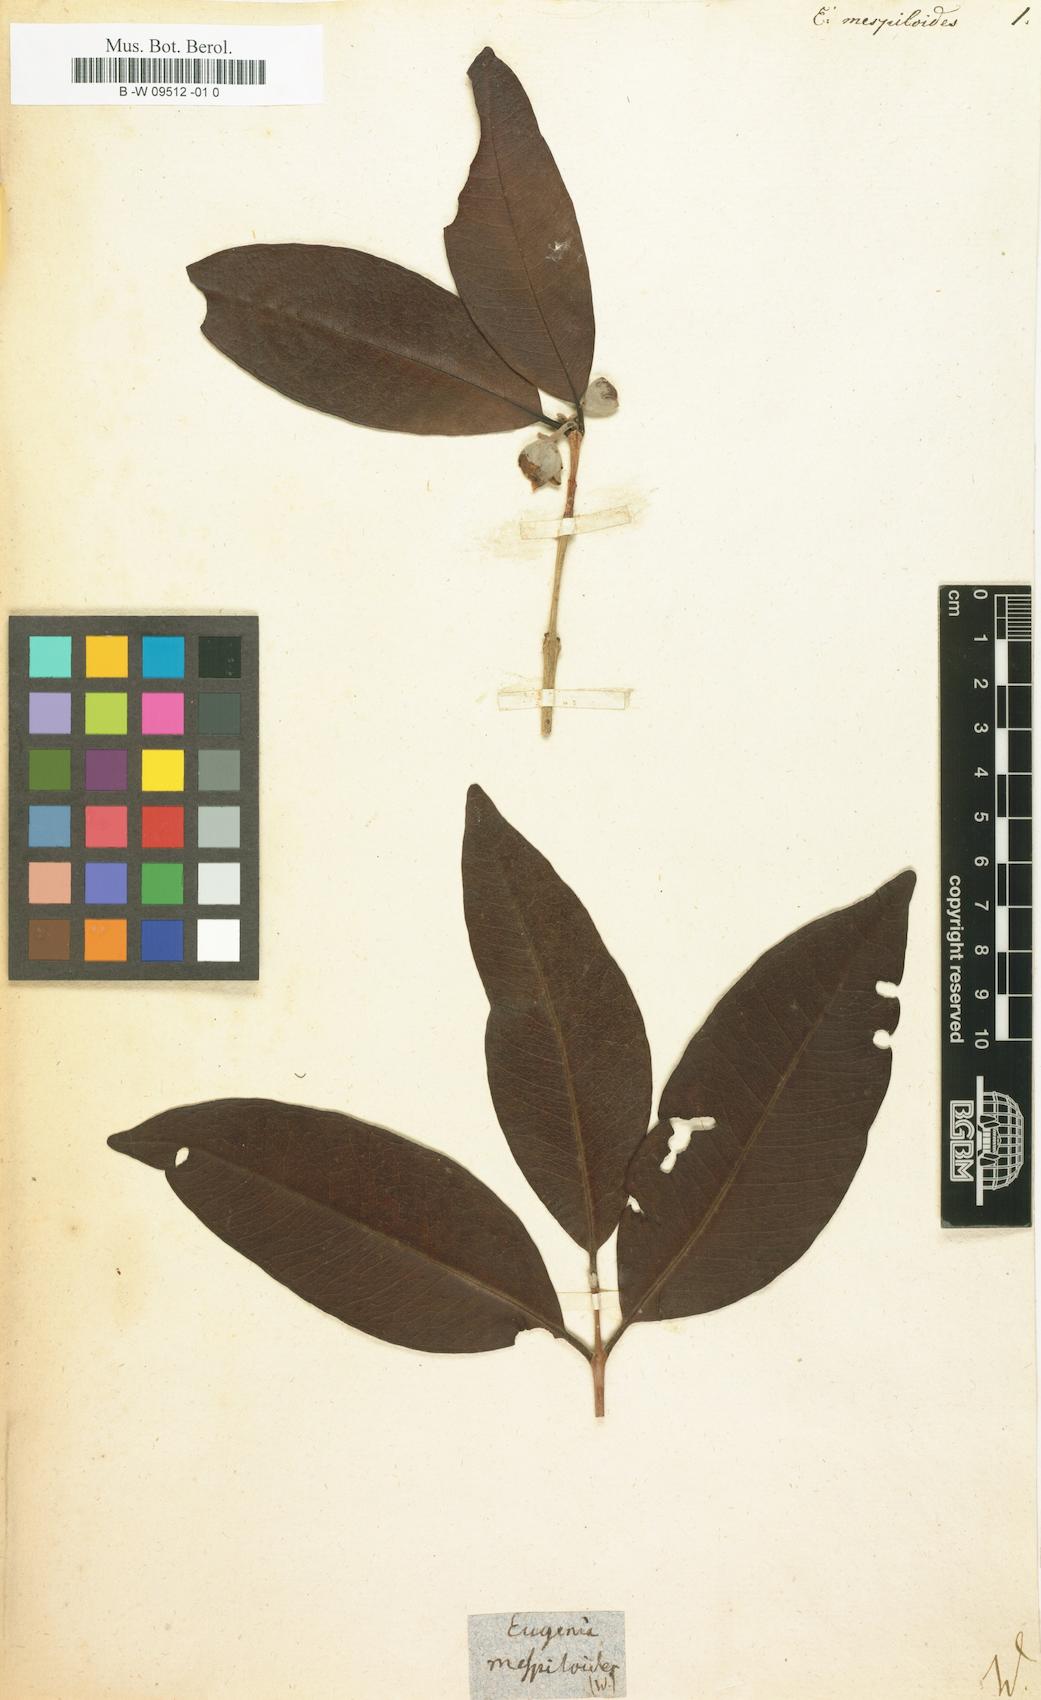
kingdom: Plantae
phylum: Tracheophyta
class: Magnoliopsida
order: Myrtales
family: Myrtaceae
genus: Eugenia
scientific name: Eugenia mespiloides
